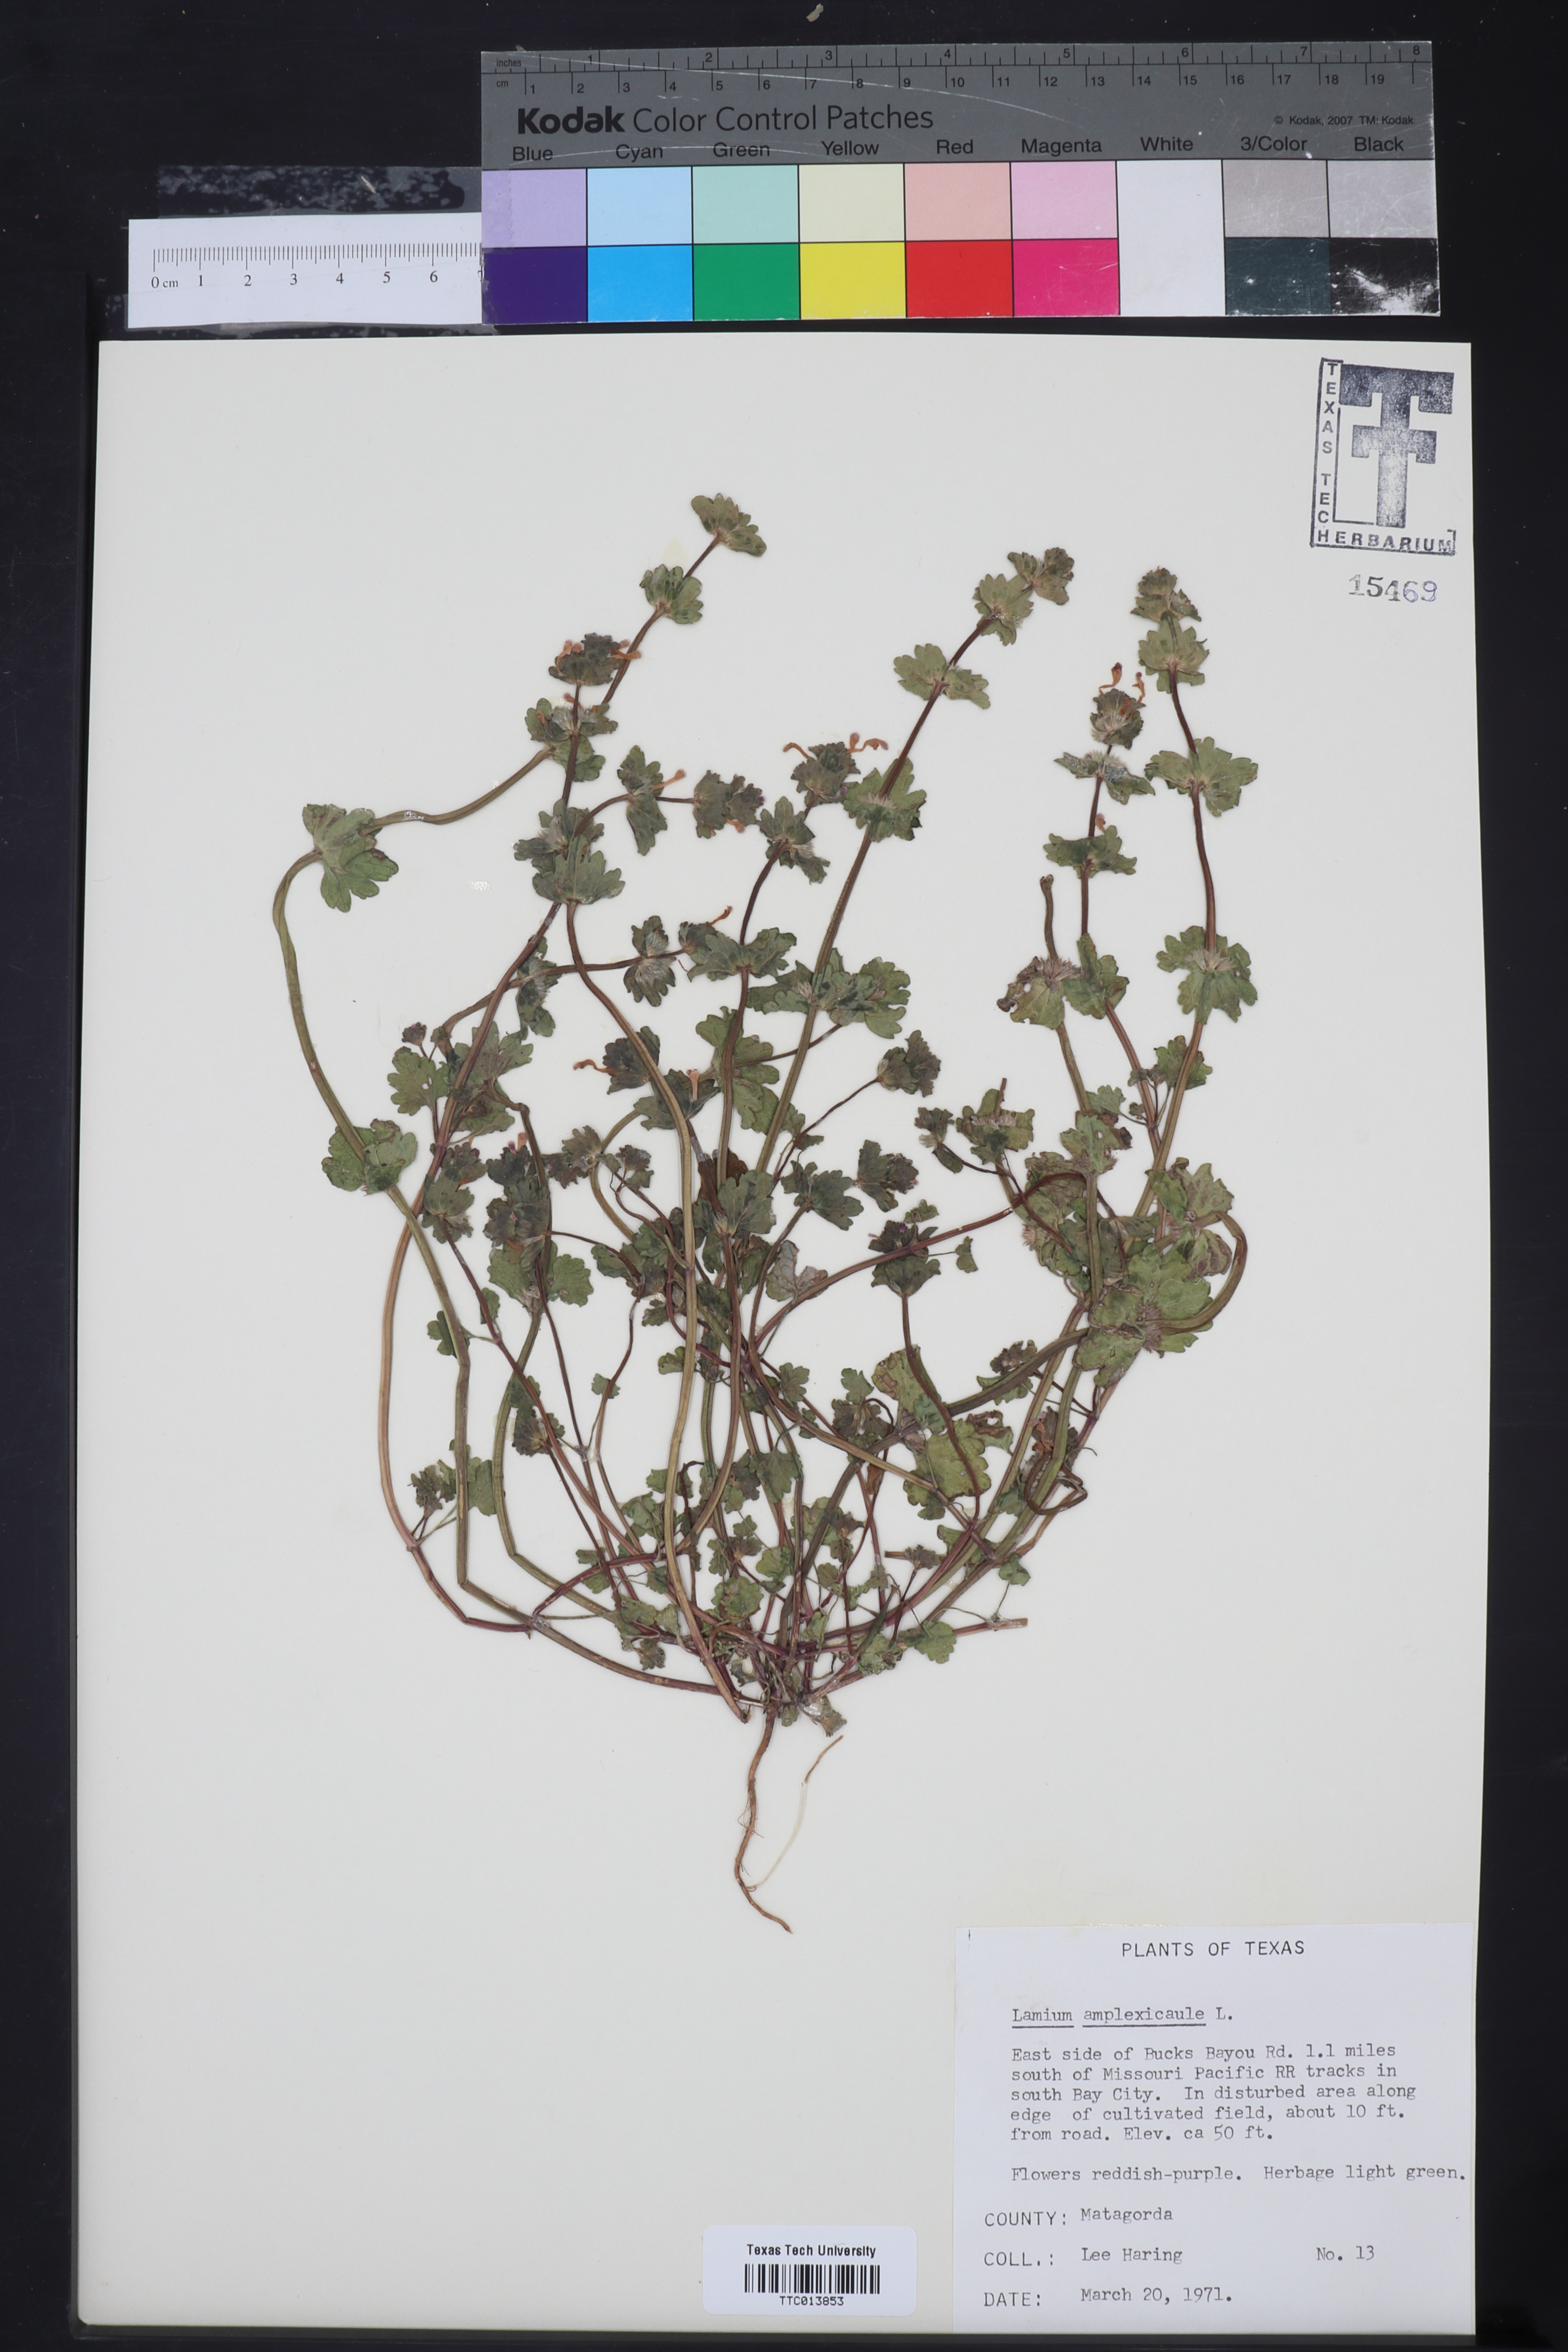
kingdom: Plantae
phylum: Tracheophyta
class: Magnoliopsida
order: Lamiales
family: Lamiaceae
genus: Lamium
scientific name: Lamium amplexicaule
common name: Henbit dead-nettle
